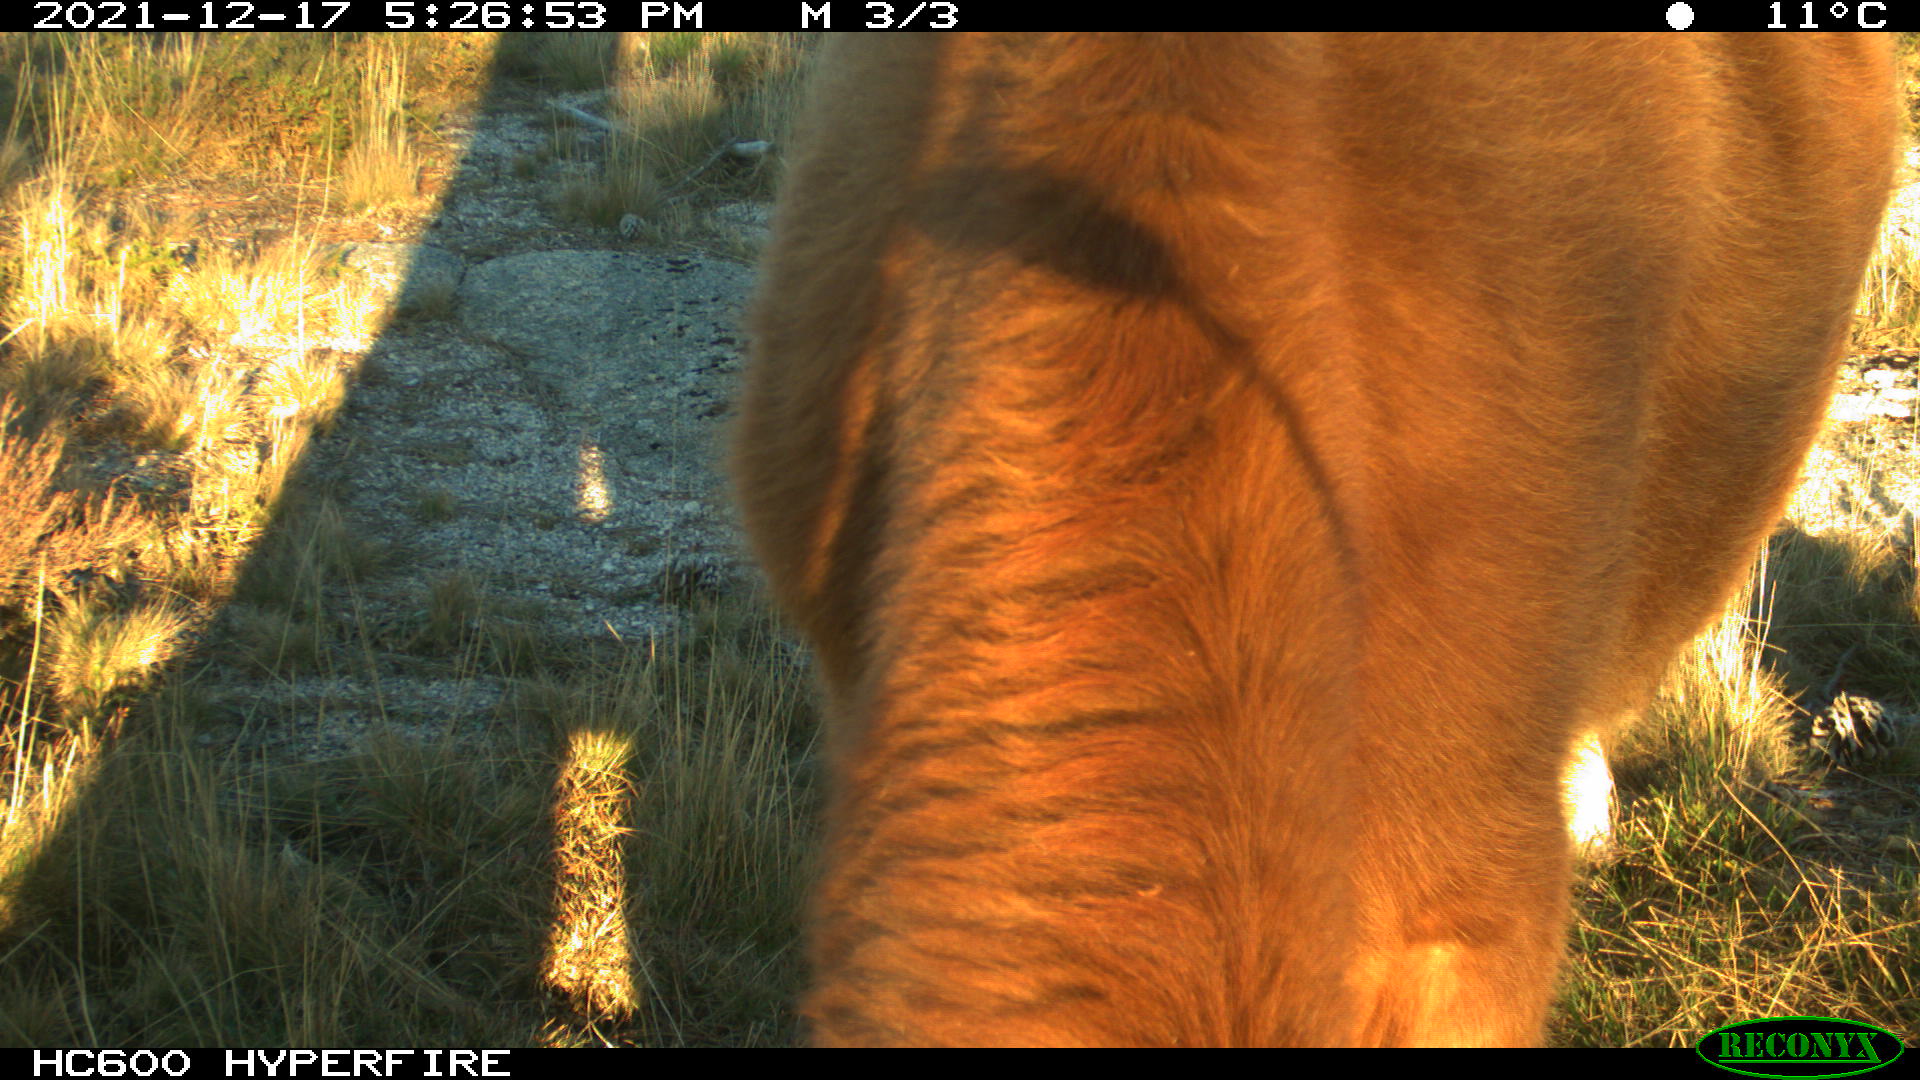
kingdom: Animalia
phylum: Chordata
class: Mammalia
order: Artiodactyla
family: Bovidae
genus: Bos
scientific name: Bos taurus
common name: Domesticated cattle
